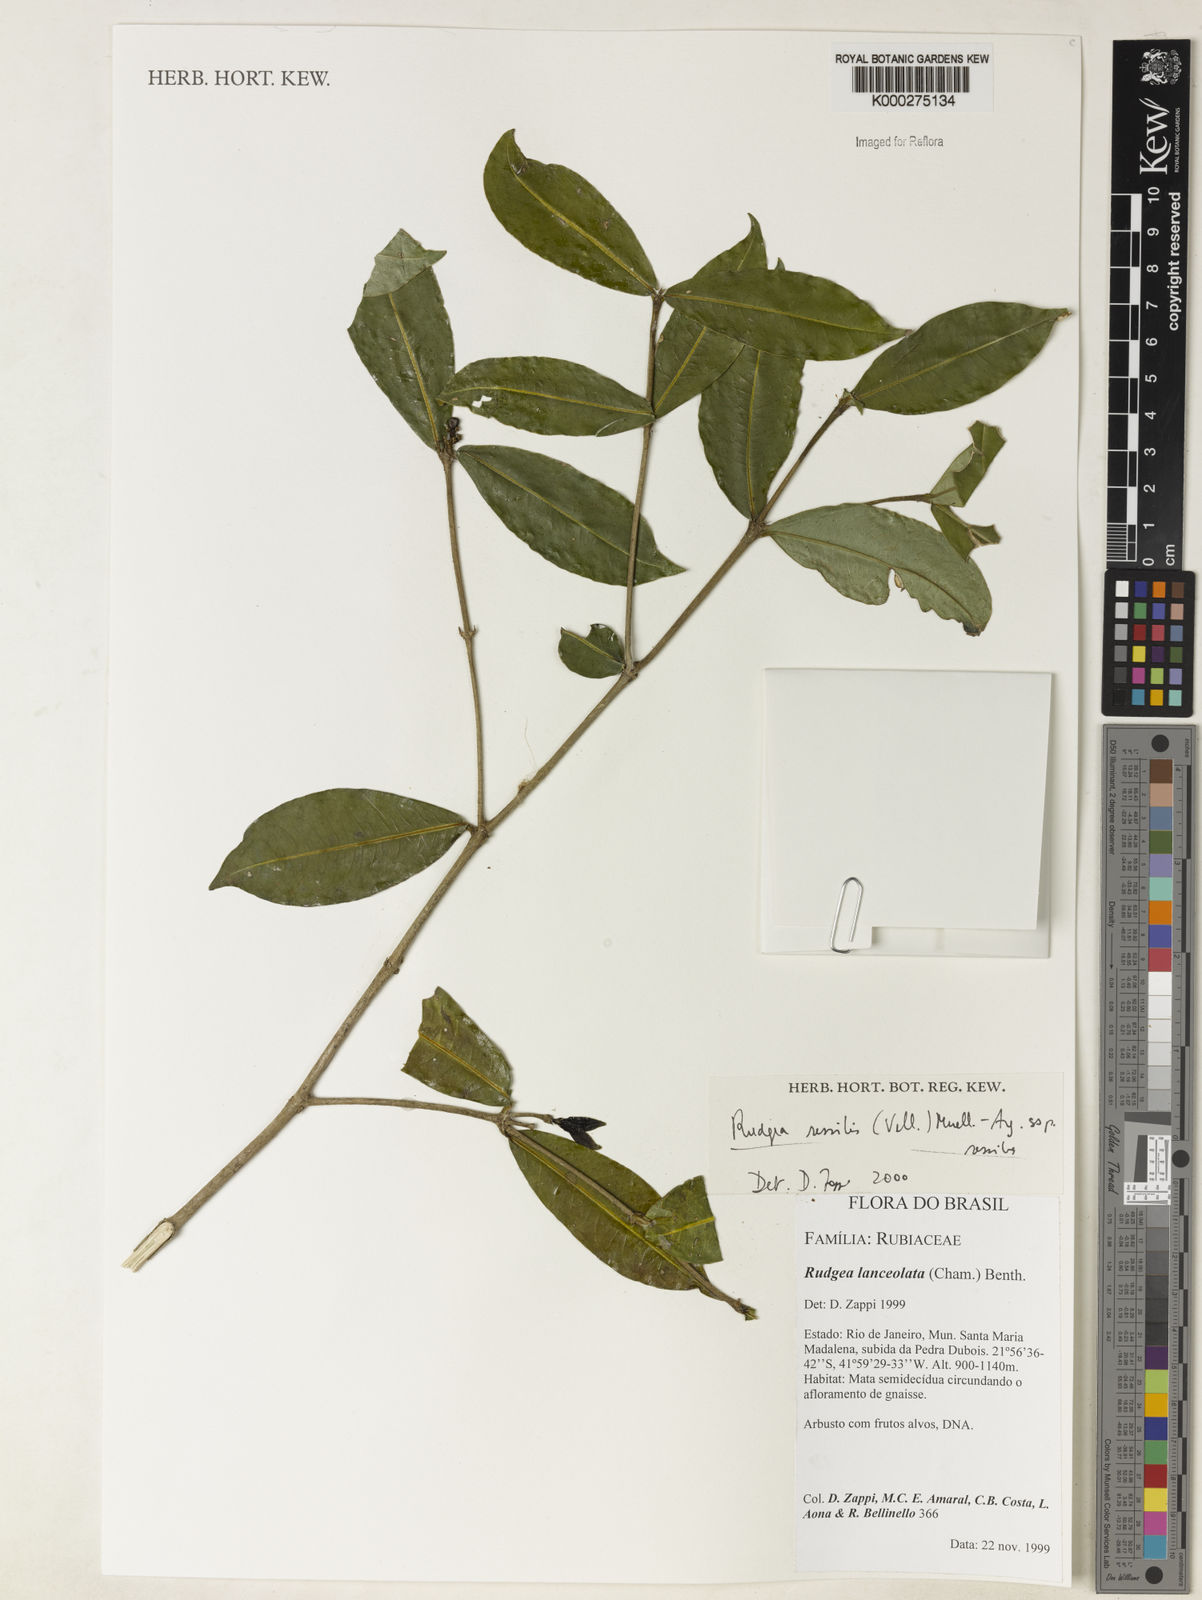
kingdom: Plantae
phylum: Tracheophyta
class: Magnoliopsida
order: Gentianales
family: Rubiaceae
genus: Rudgea
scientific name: Rudgea sessilis
